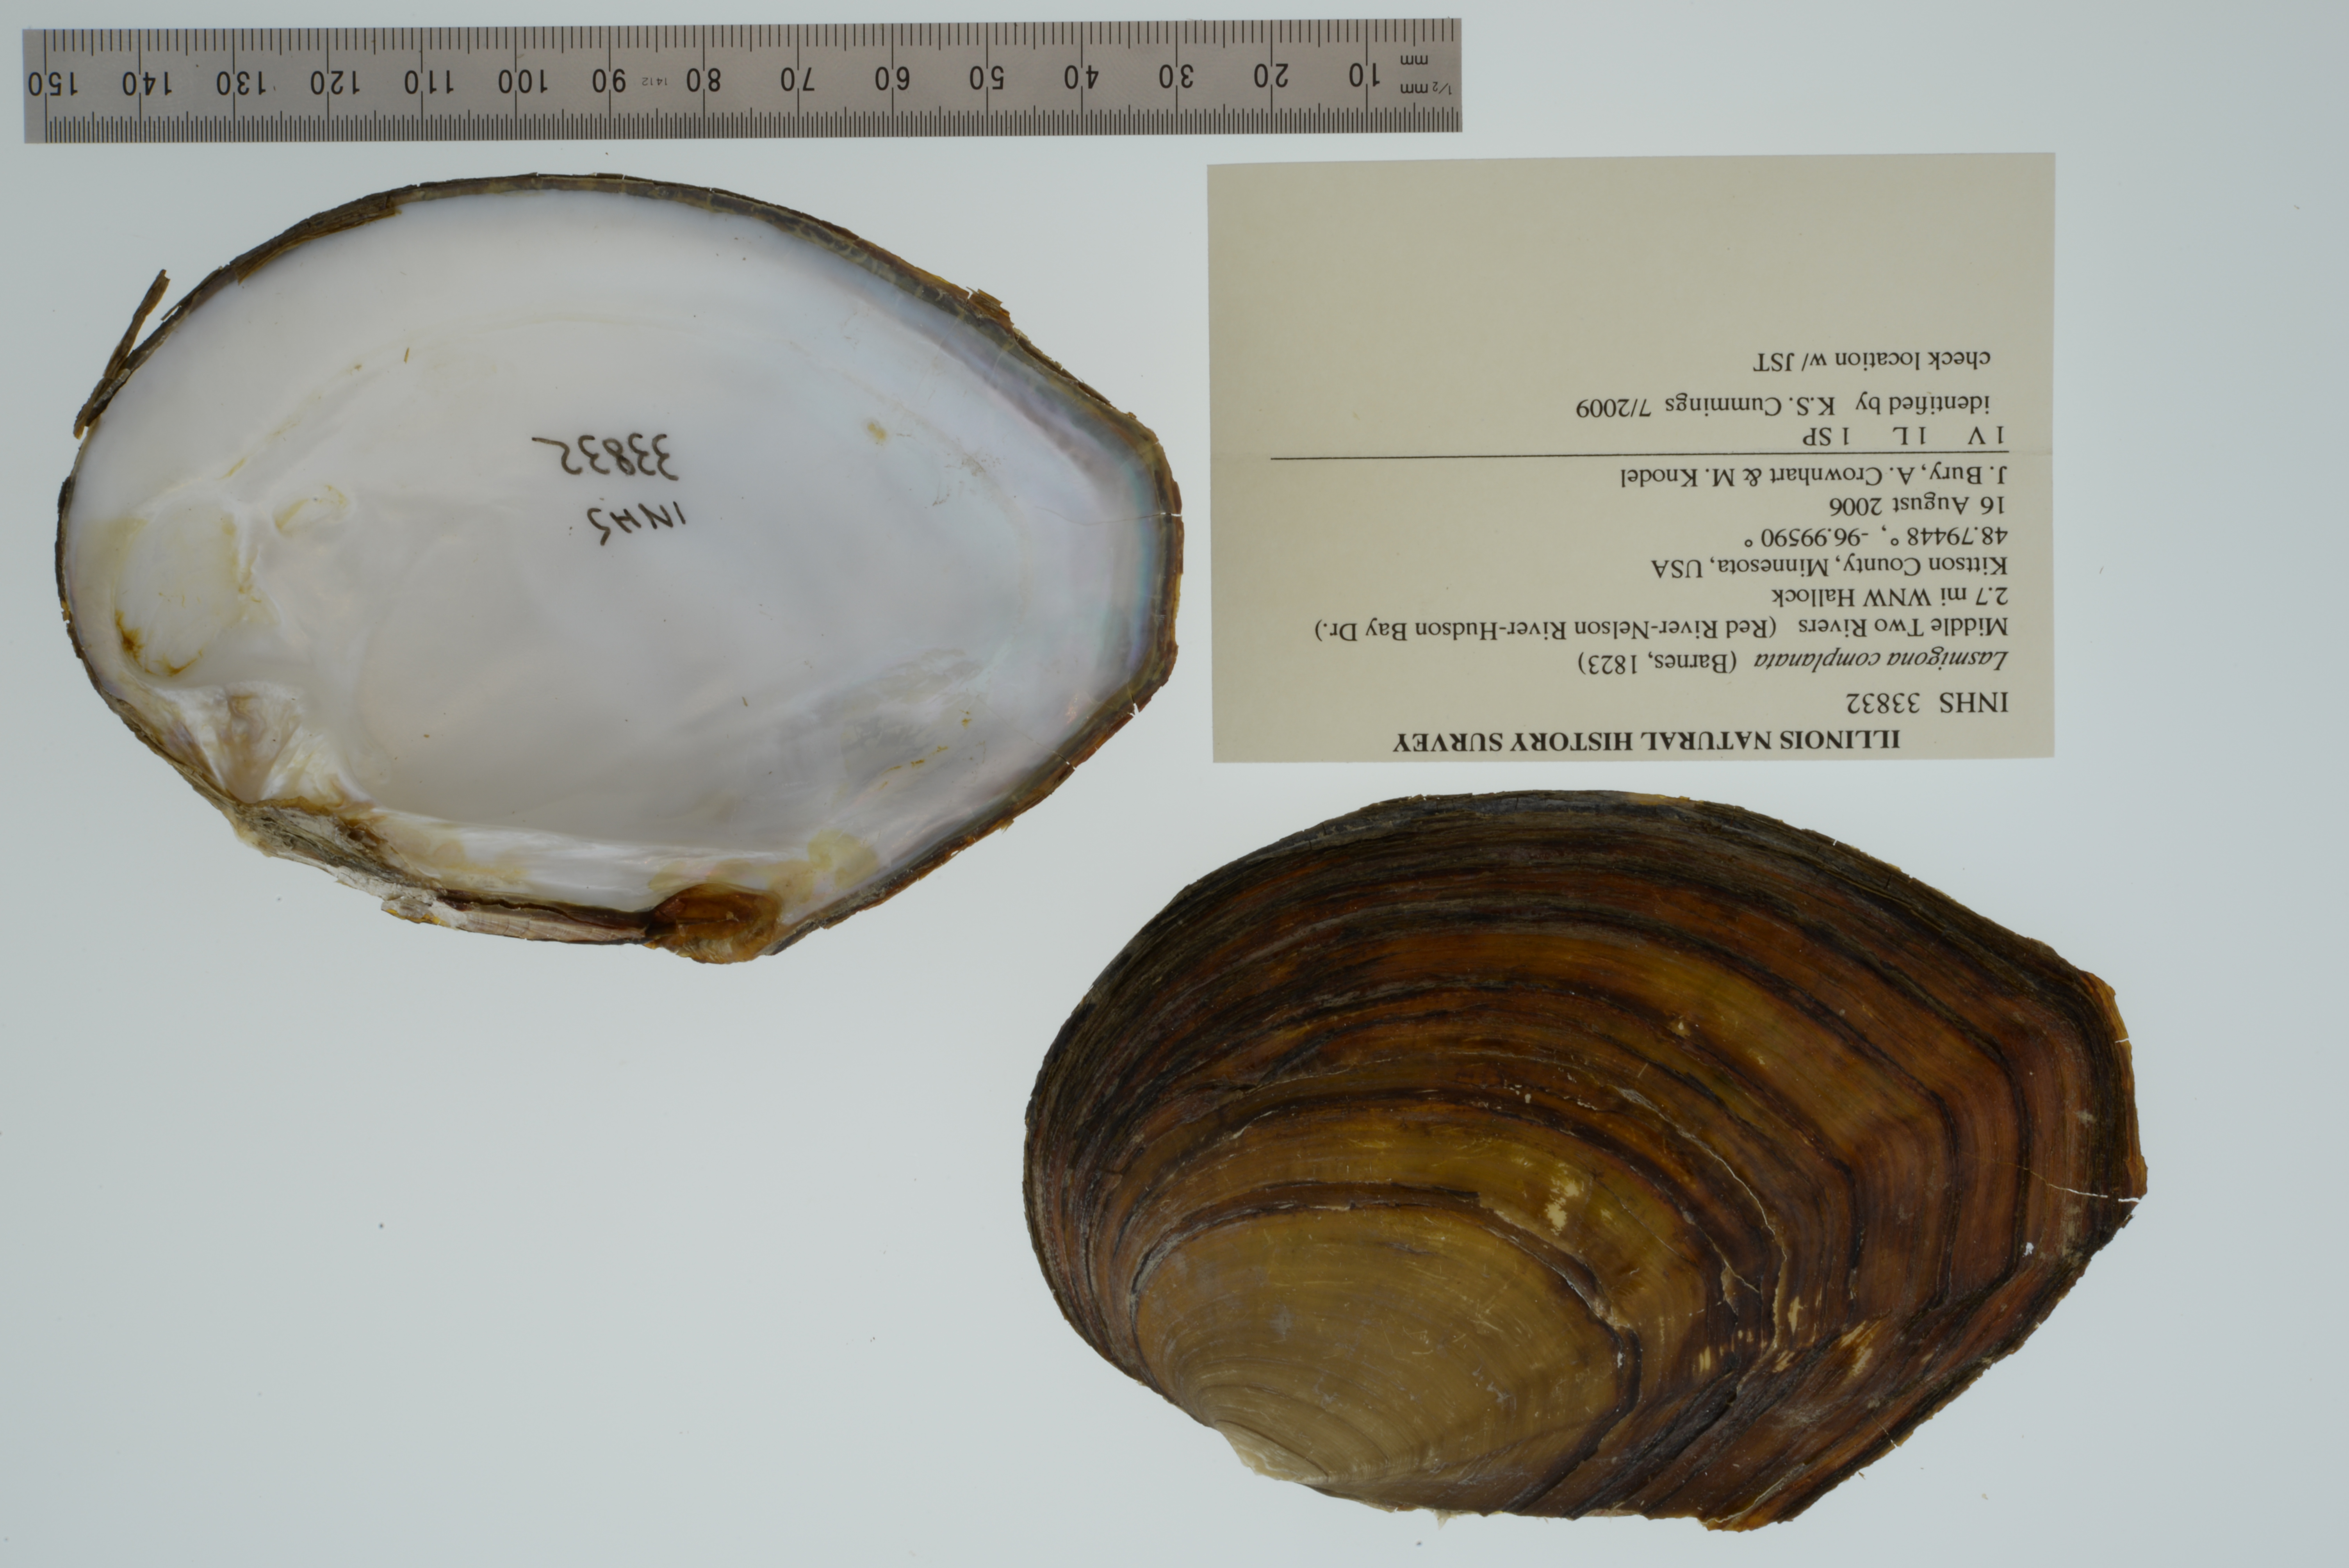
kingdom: Animalia
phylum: Mollusca
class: Bivalvia
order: Unionida
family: Unionidae
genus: Lasmigona
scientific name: Lasmigona complanata
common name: White heelsplitter
